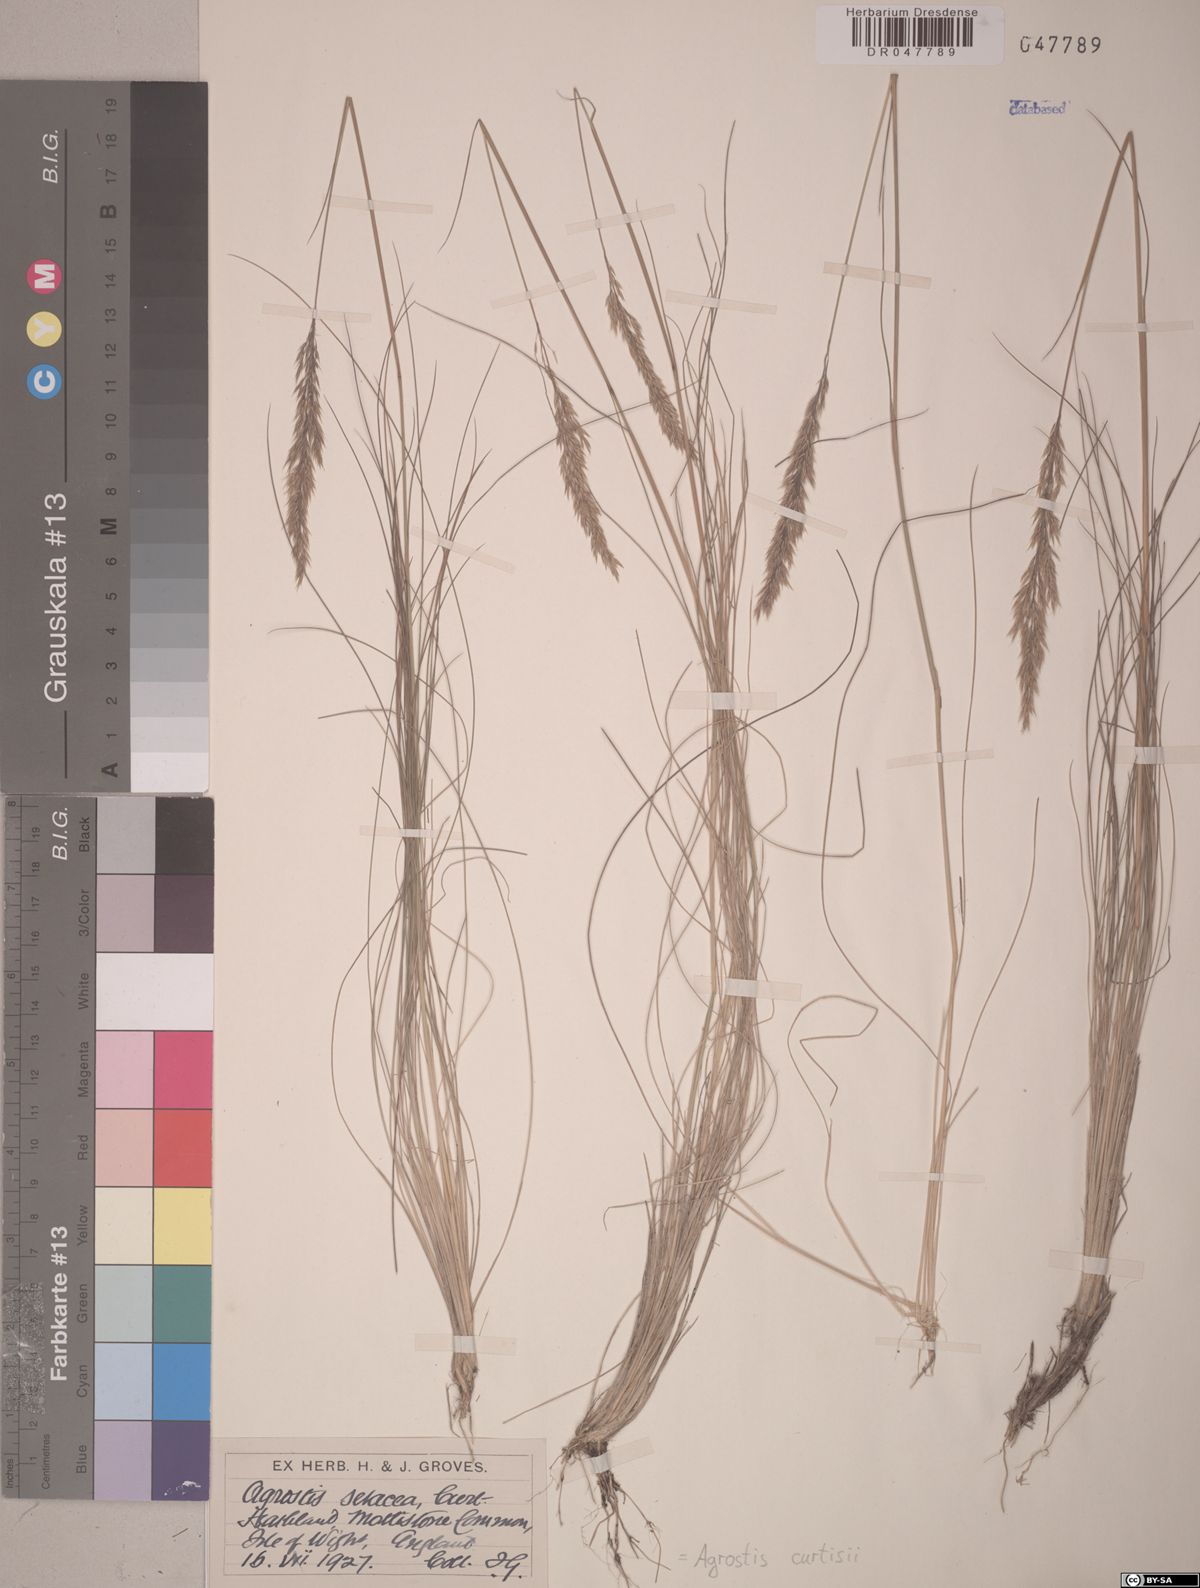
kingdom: Plantae
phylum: Tracheophyta
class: Liliopsida
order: Poales
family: Poaceae
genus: Alpagrostis
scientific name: Alpagrostis setacea
